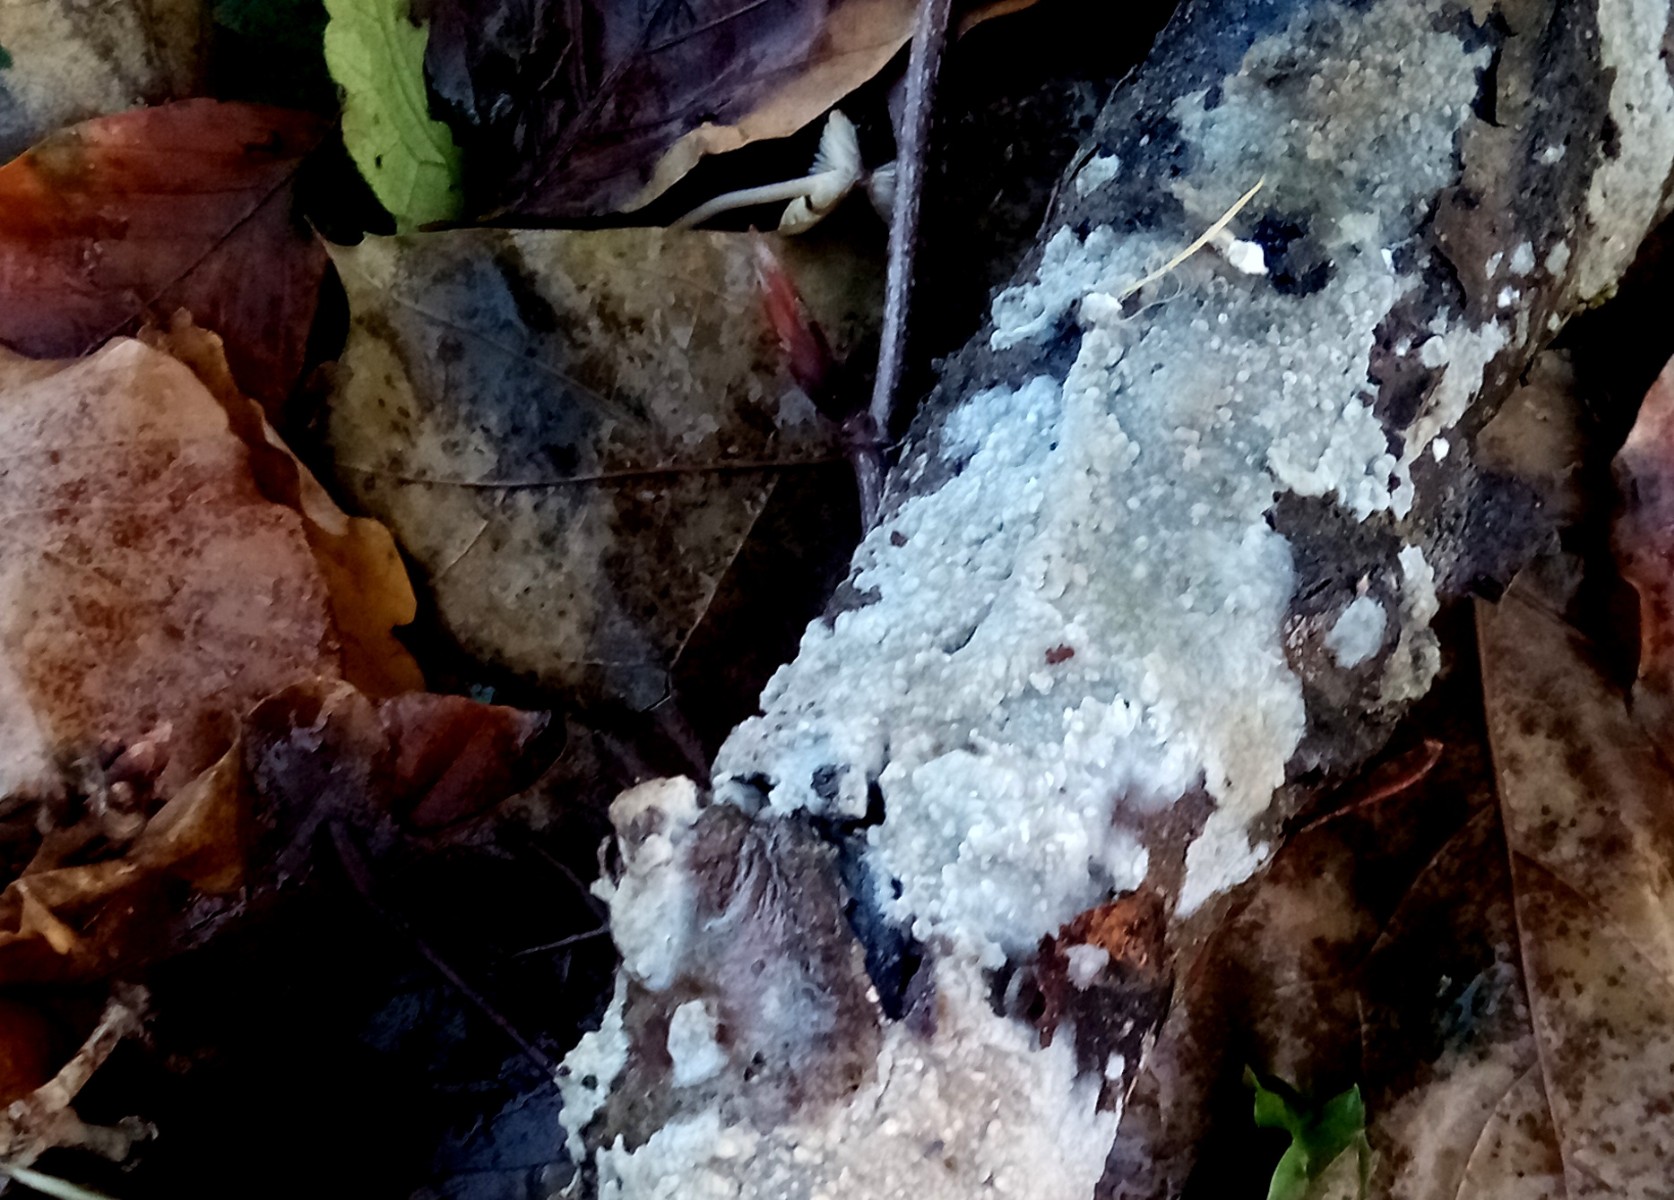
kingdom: Fungi
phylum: Basidiomycota
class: Agaricomycetes
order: Agaricales
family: Radulomycetaceae
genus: Radulomyces
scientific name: Radulomyces confluens
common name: glat naftalinskind
